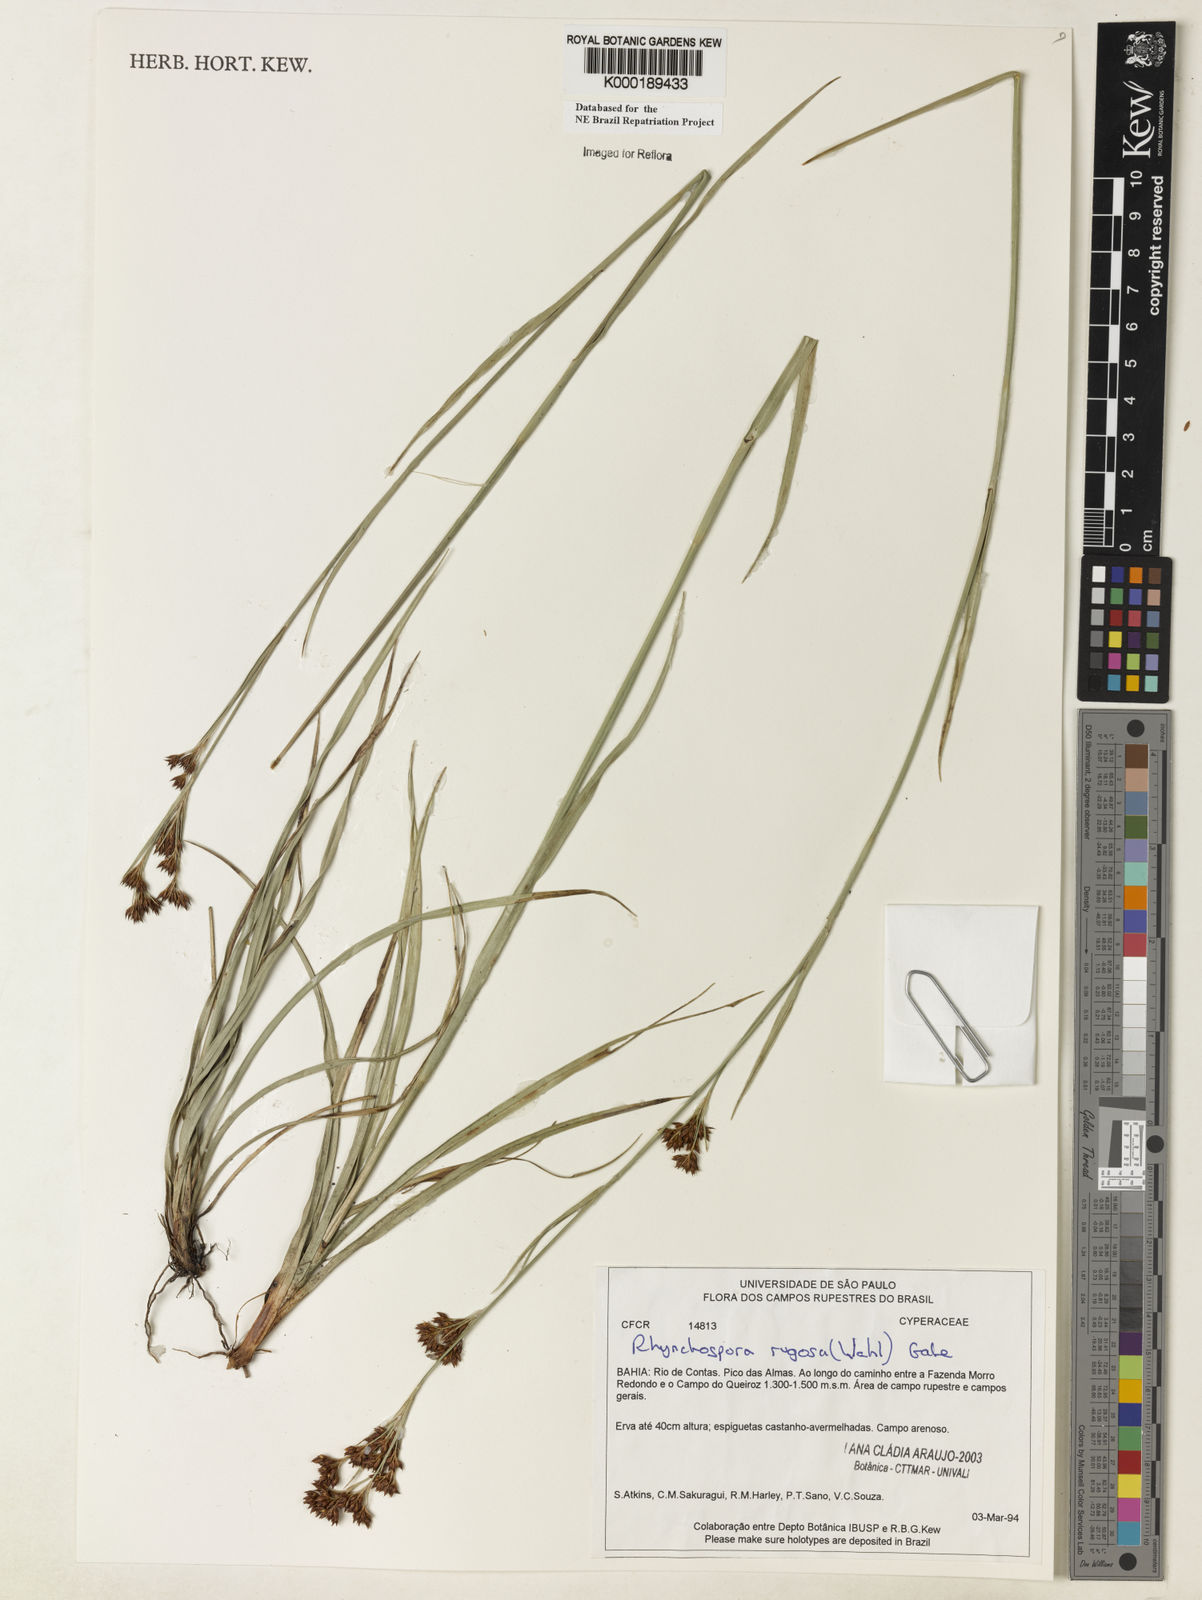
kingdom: Plantae
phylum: Tracheophyta
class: Liliopsida
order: Poales
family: Cyperaceae
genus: Rhynchospora
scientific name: Rhynchospora rugosa
